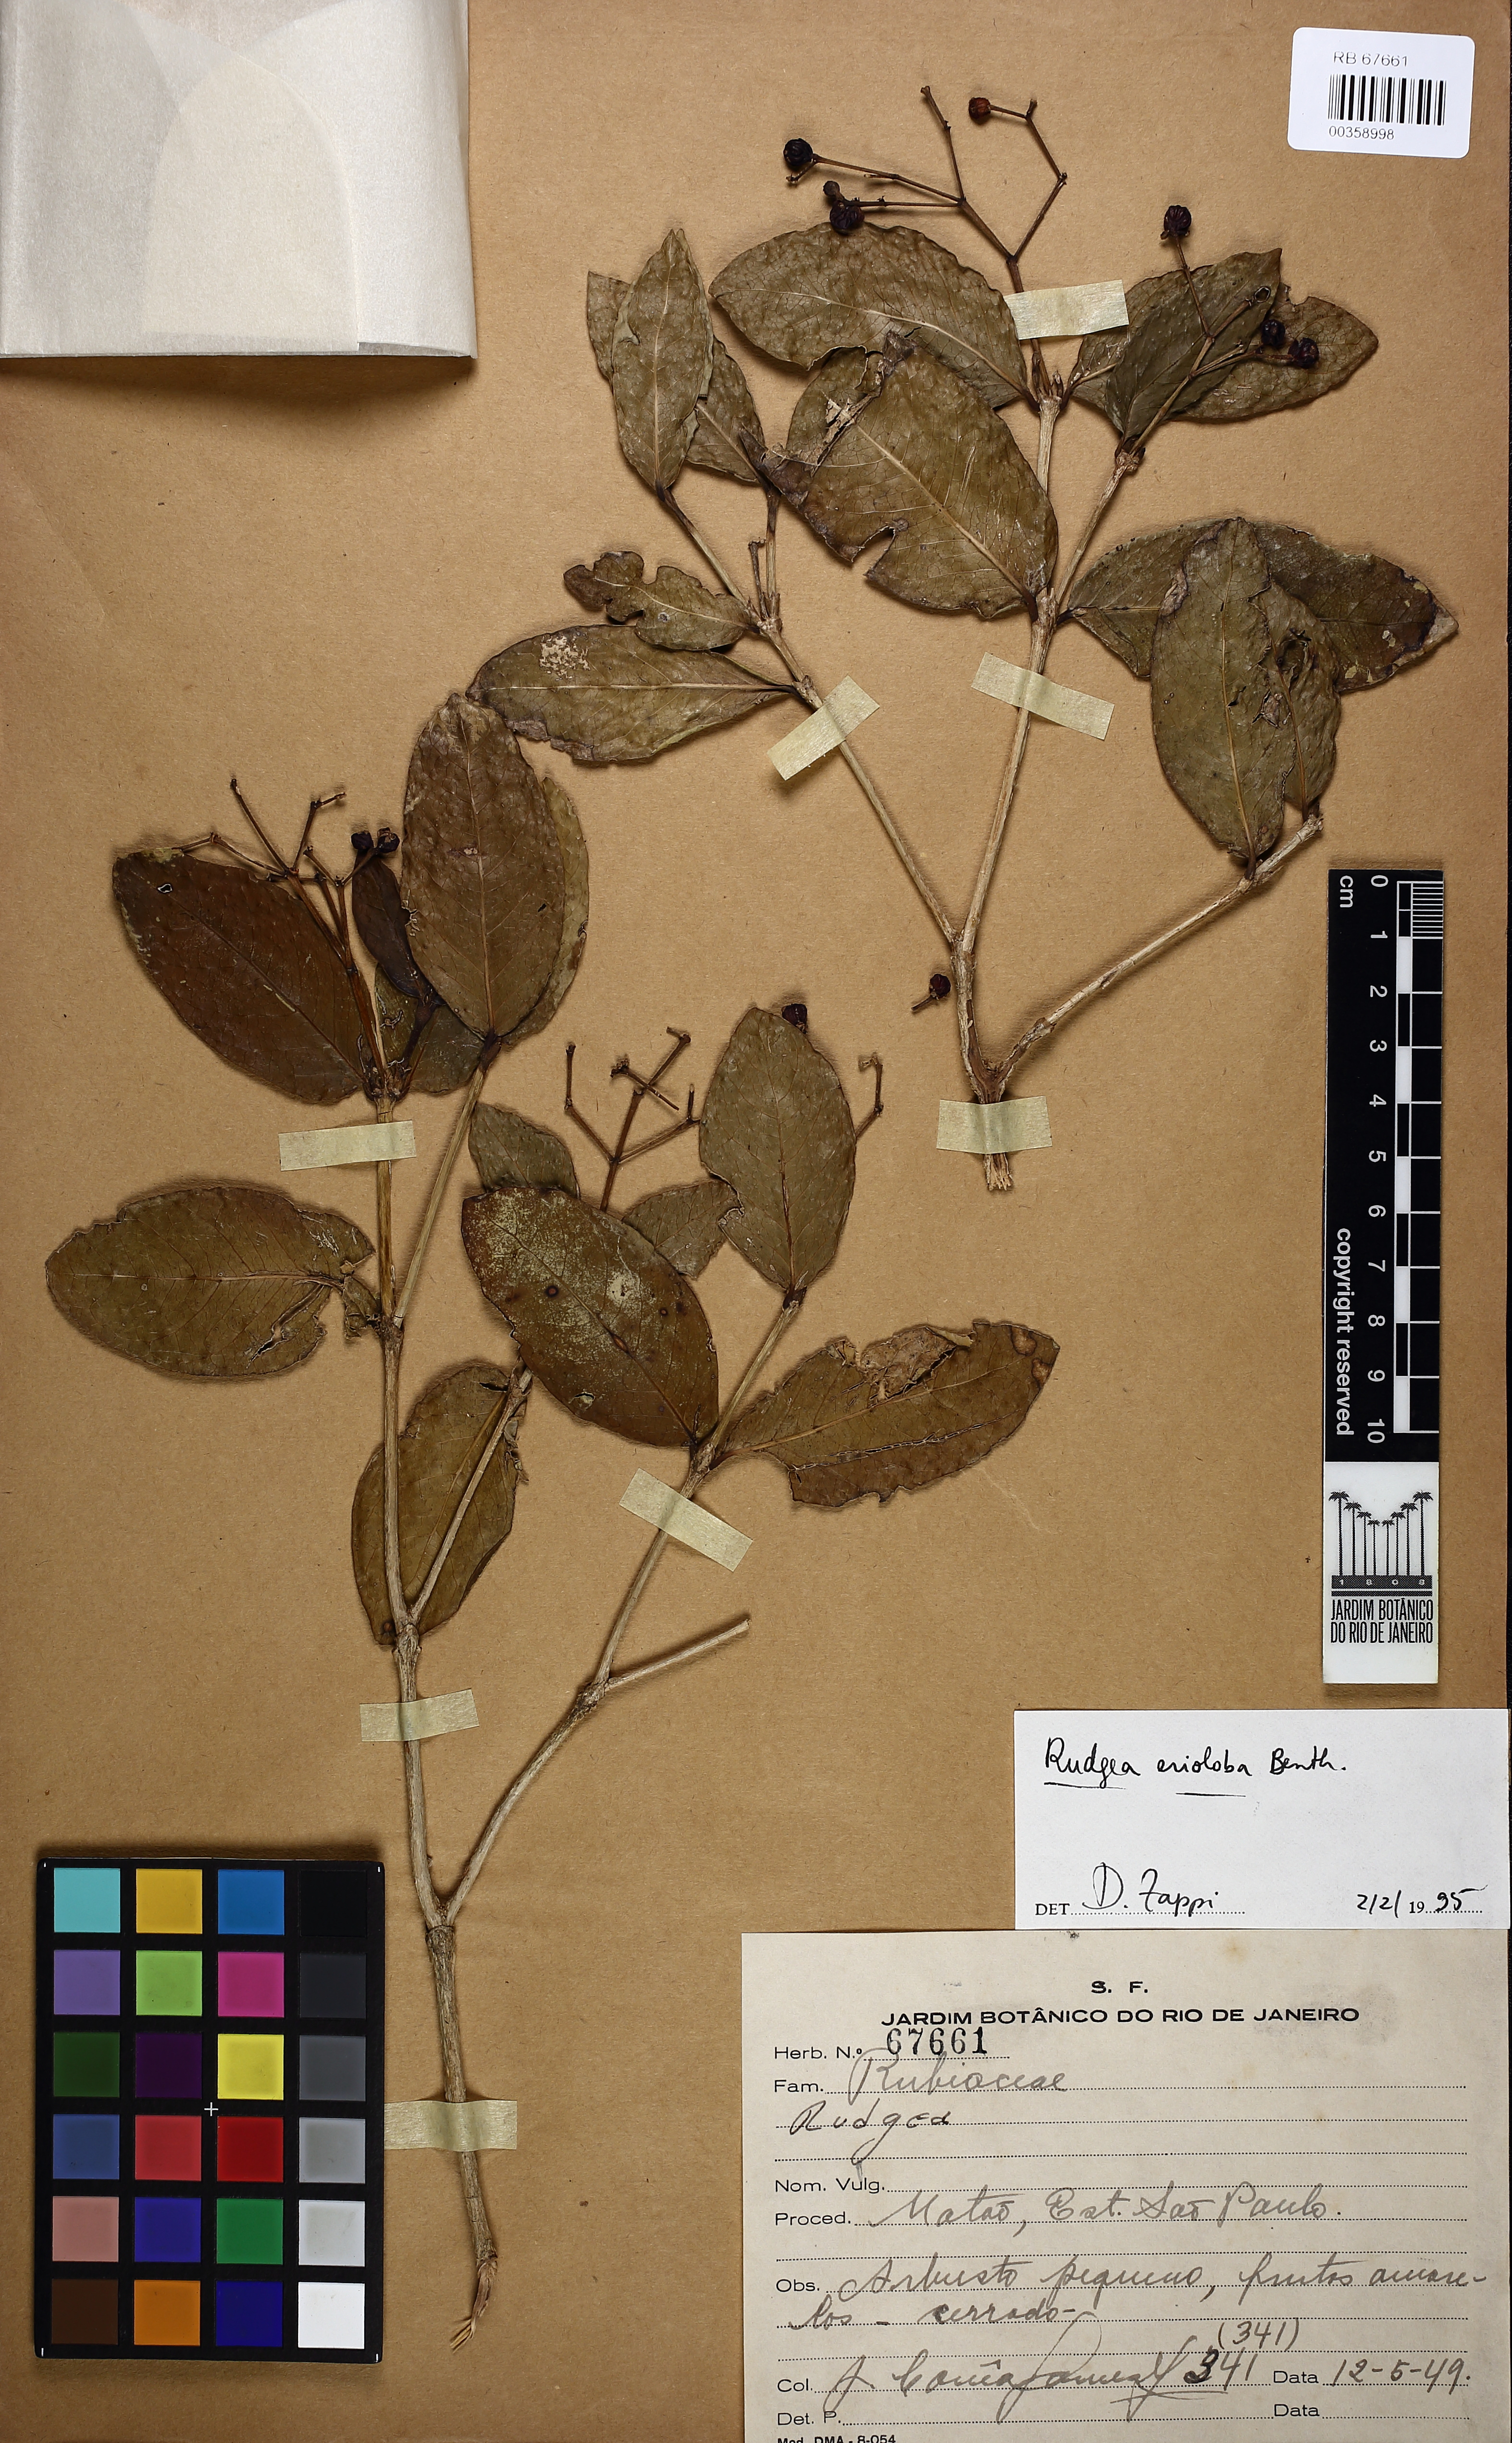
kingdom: Plantae
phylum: Tracheophyta
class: Magnoliopsida
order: Gentianales
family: Rubiaceae
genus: Rudgea
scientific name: Rudgea crassiloba
